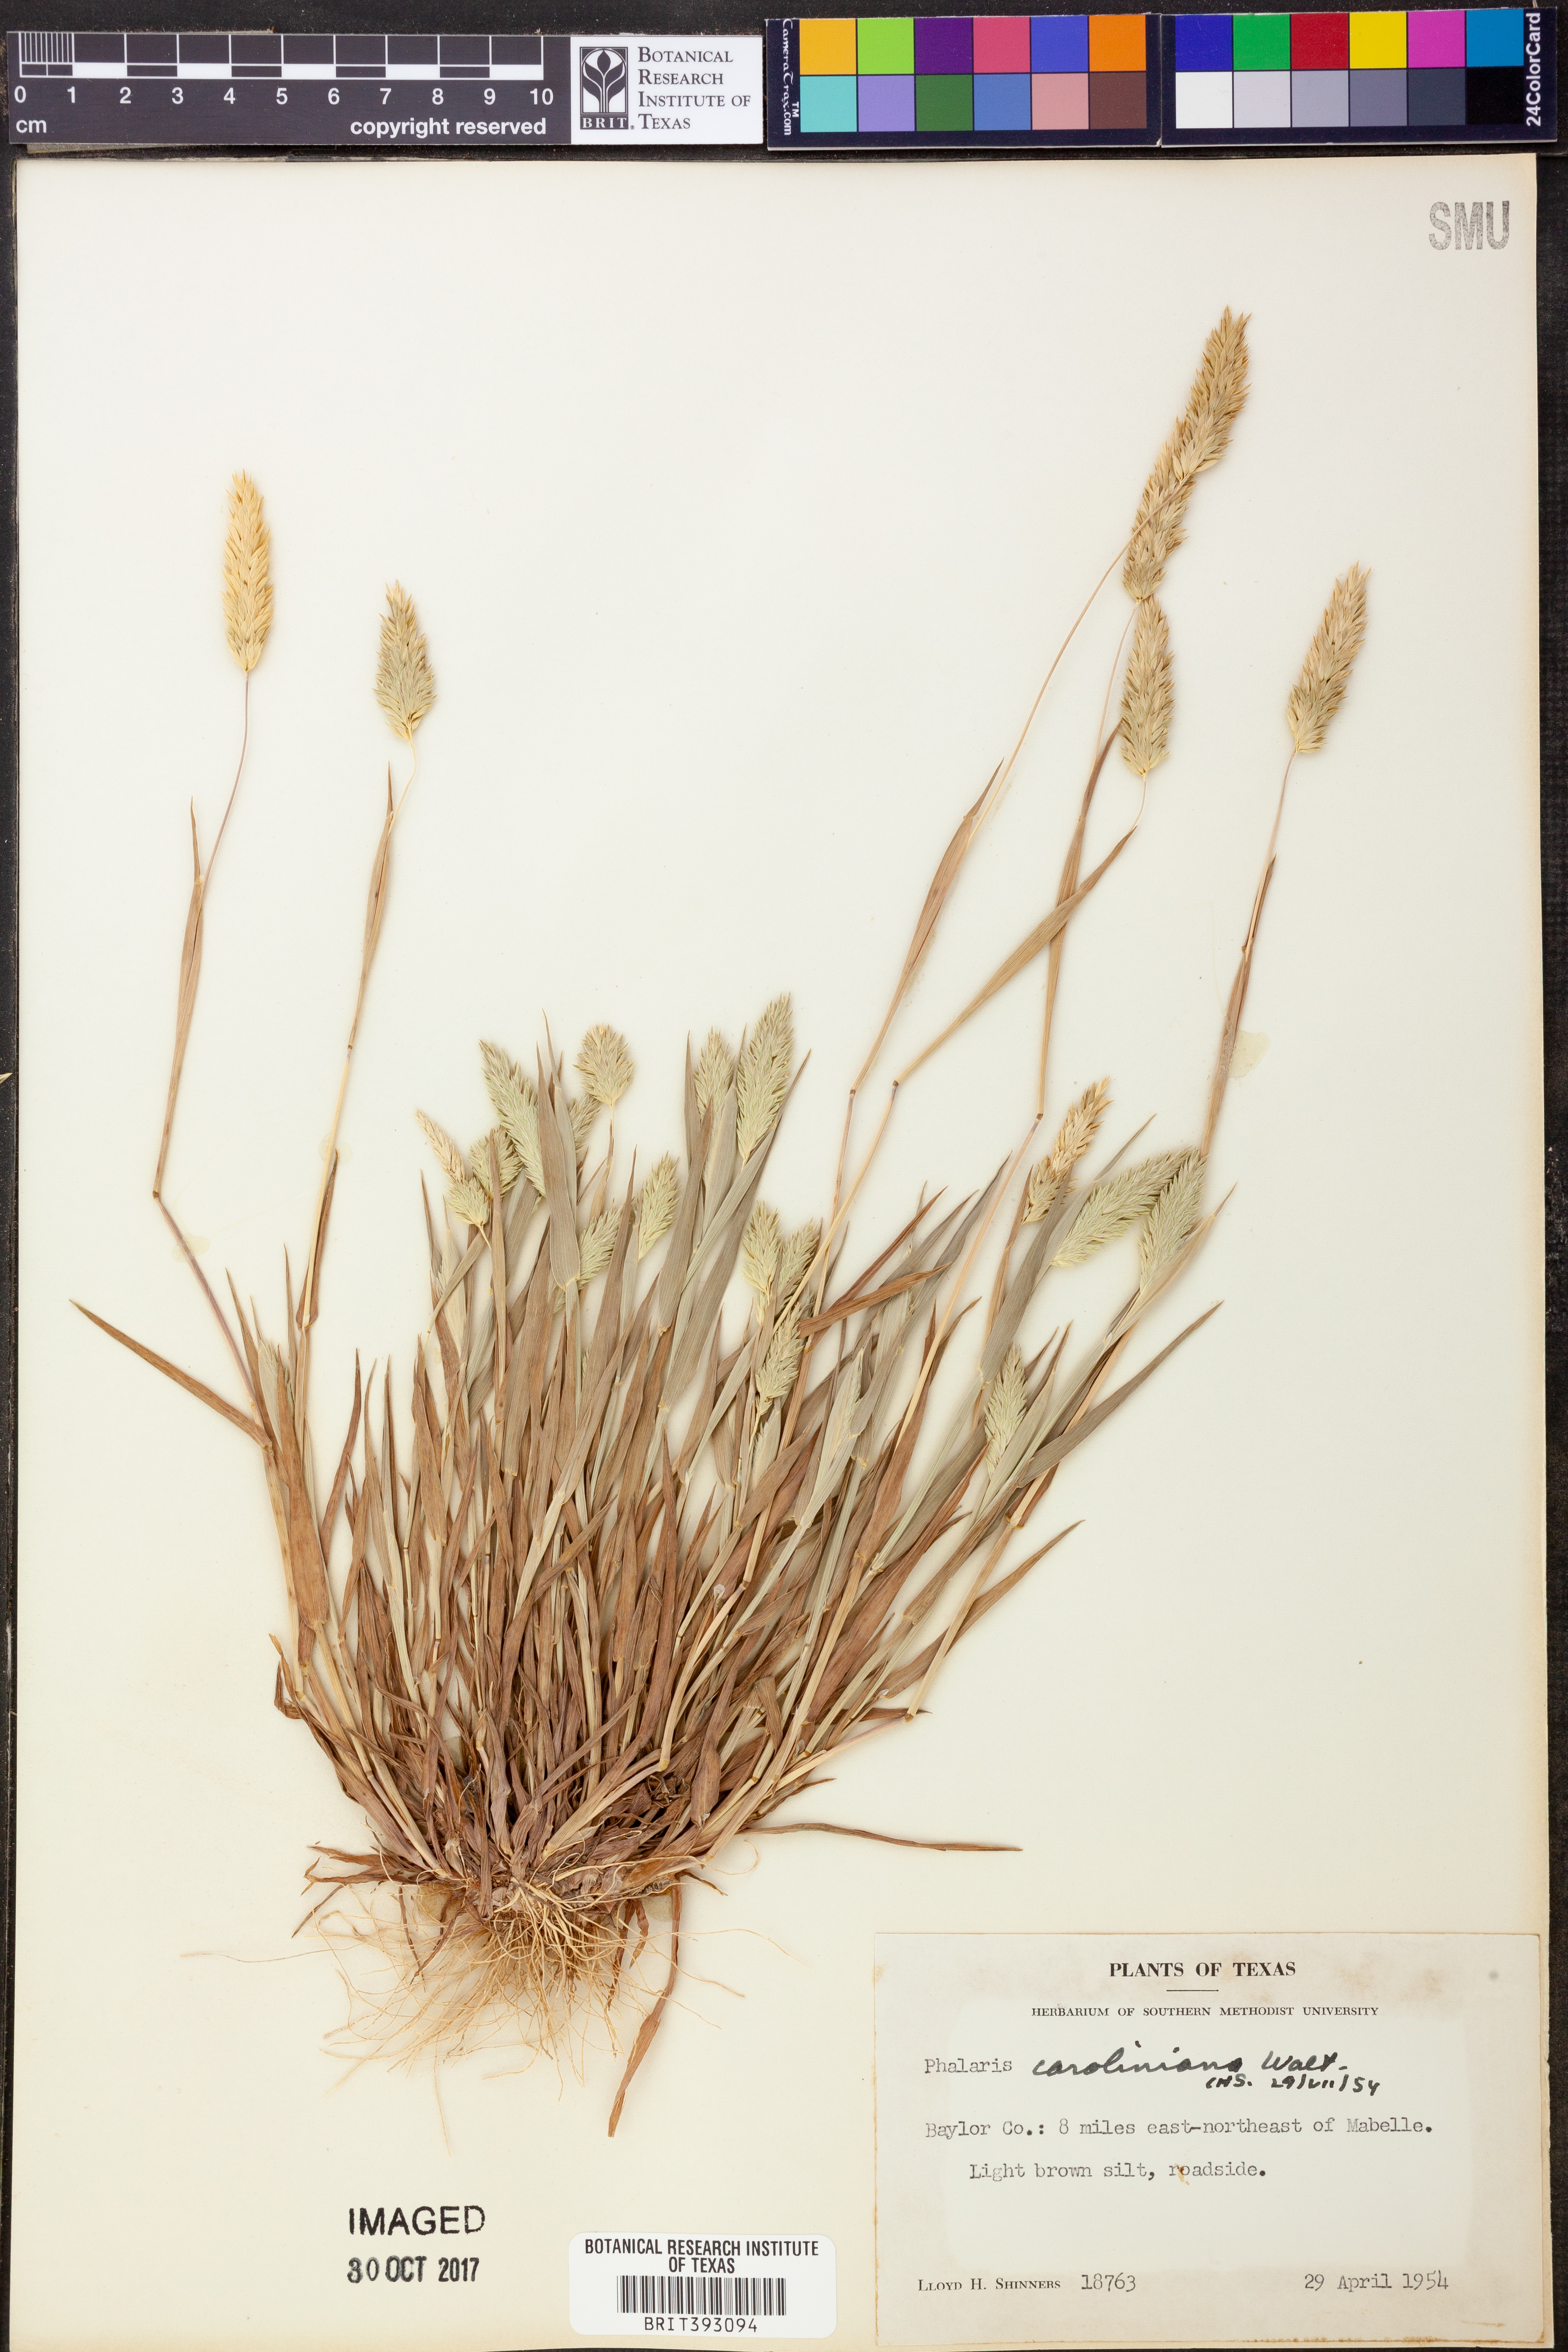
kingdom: Plantae
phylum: Tracheophyta
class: Liliopsida
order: Poales
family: Poaceae
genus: Phalaris
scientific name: Phalaris caroliniana
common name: May grass
